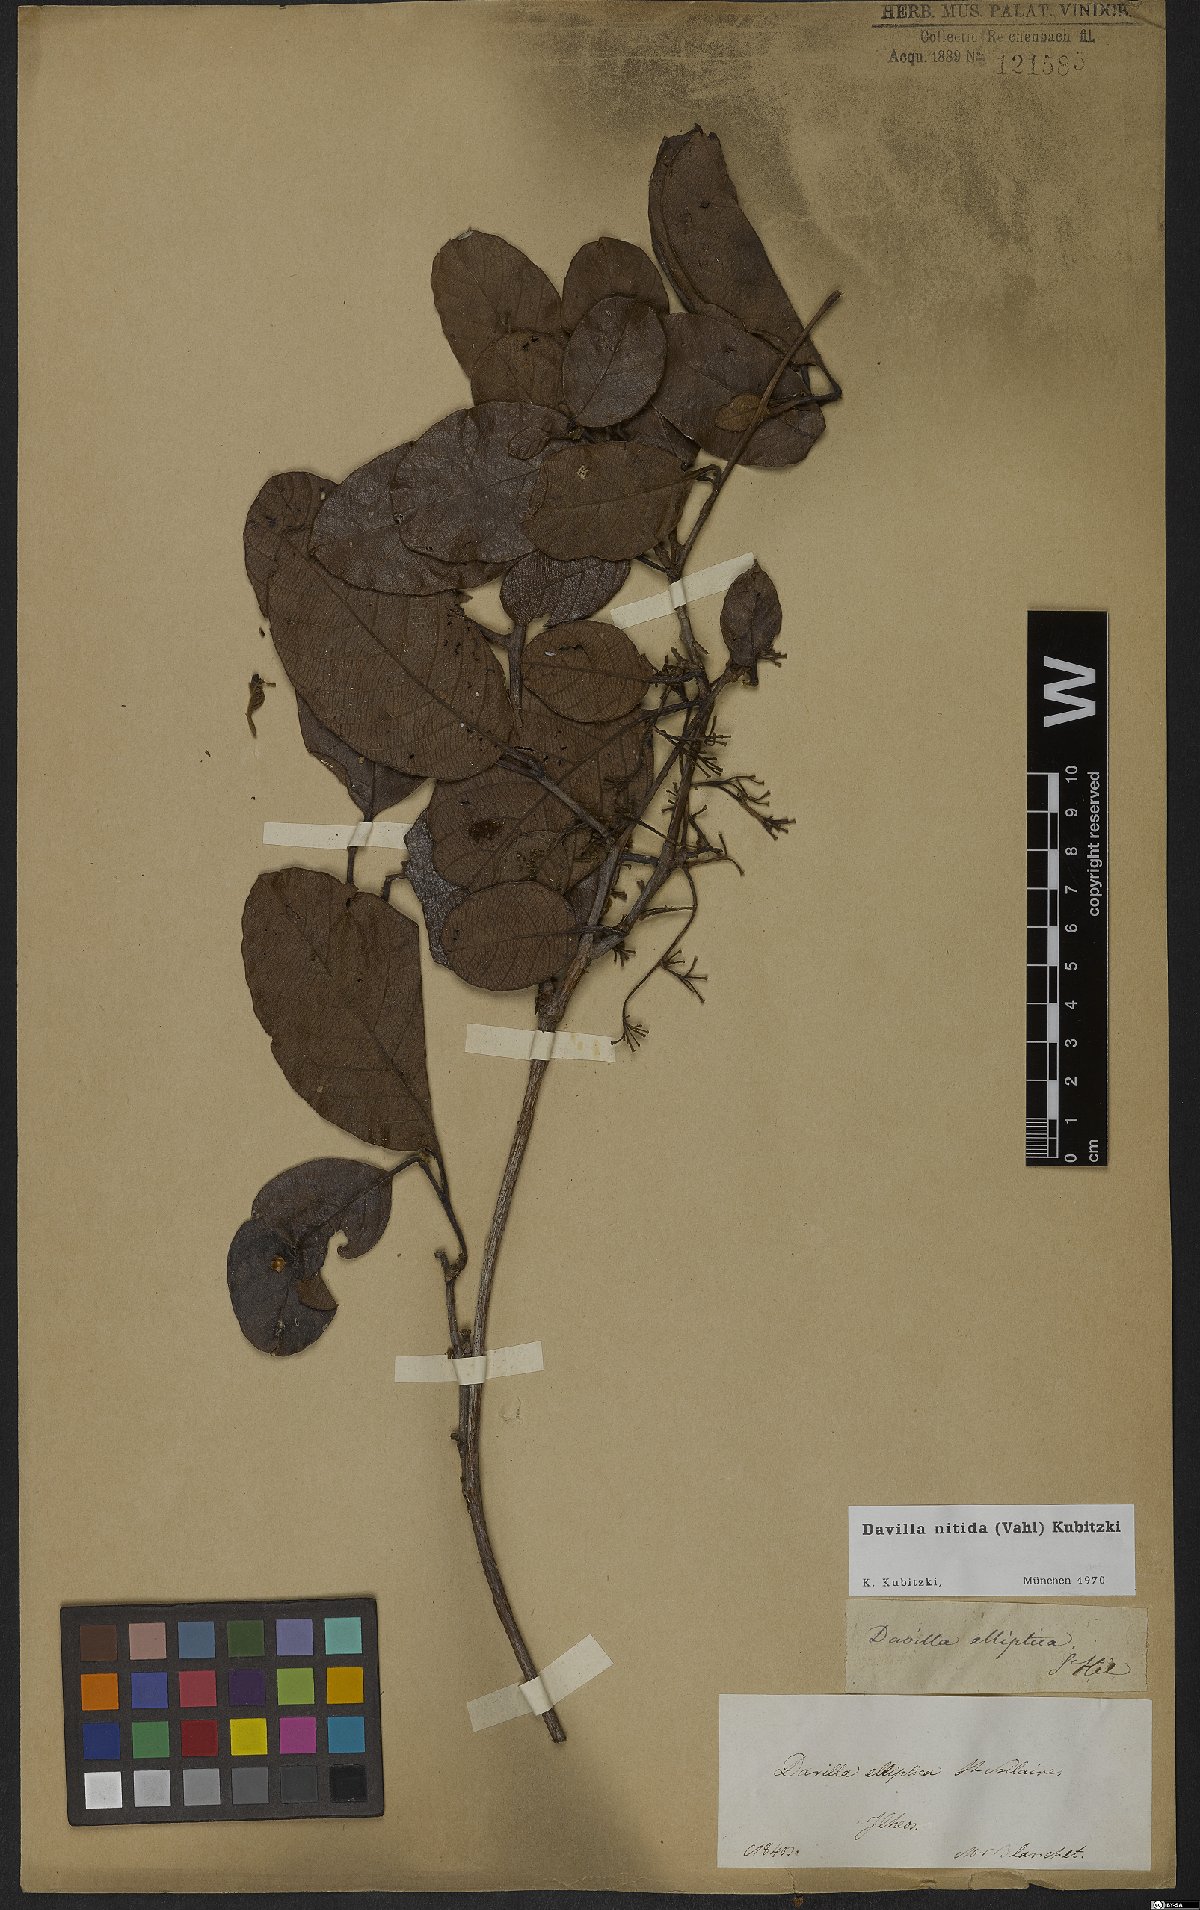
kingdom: Plantae
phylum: Tracheophyta
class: Magnoliopsida
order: Dilleniales
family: Dilleniaceae
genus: Davilla
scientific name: Davilla nitida
